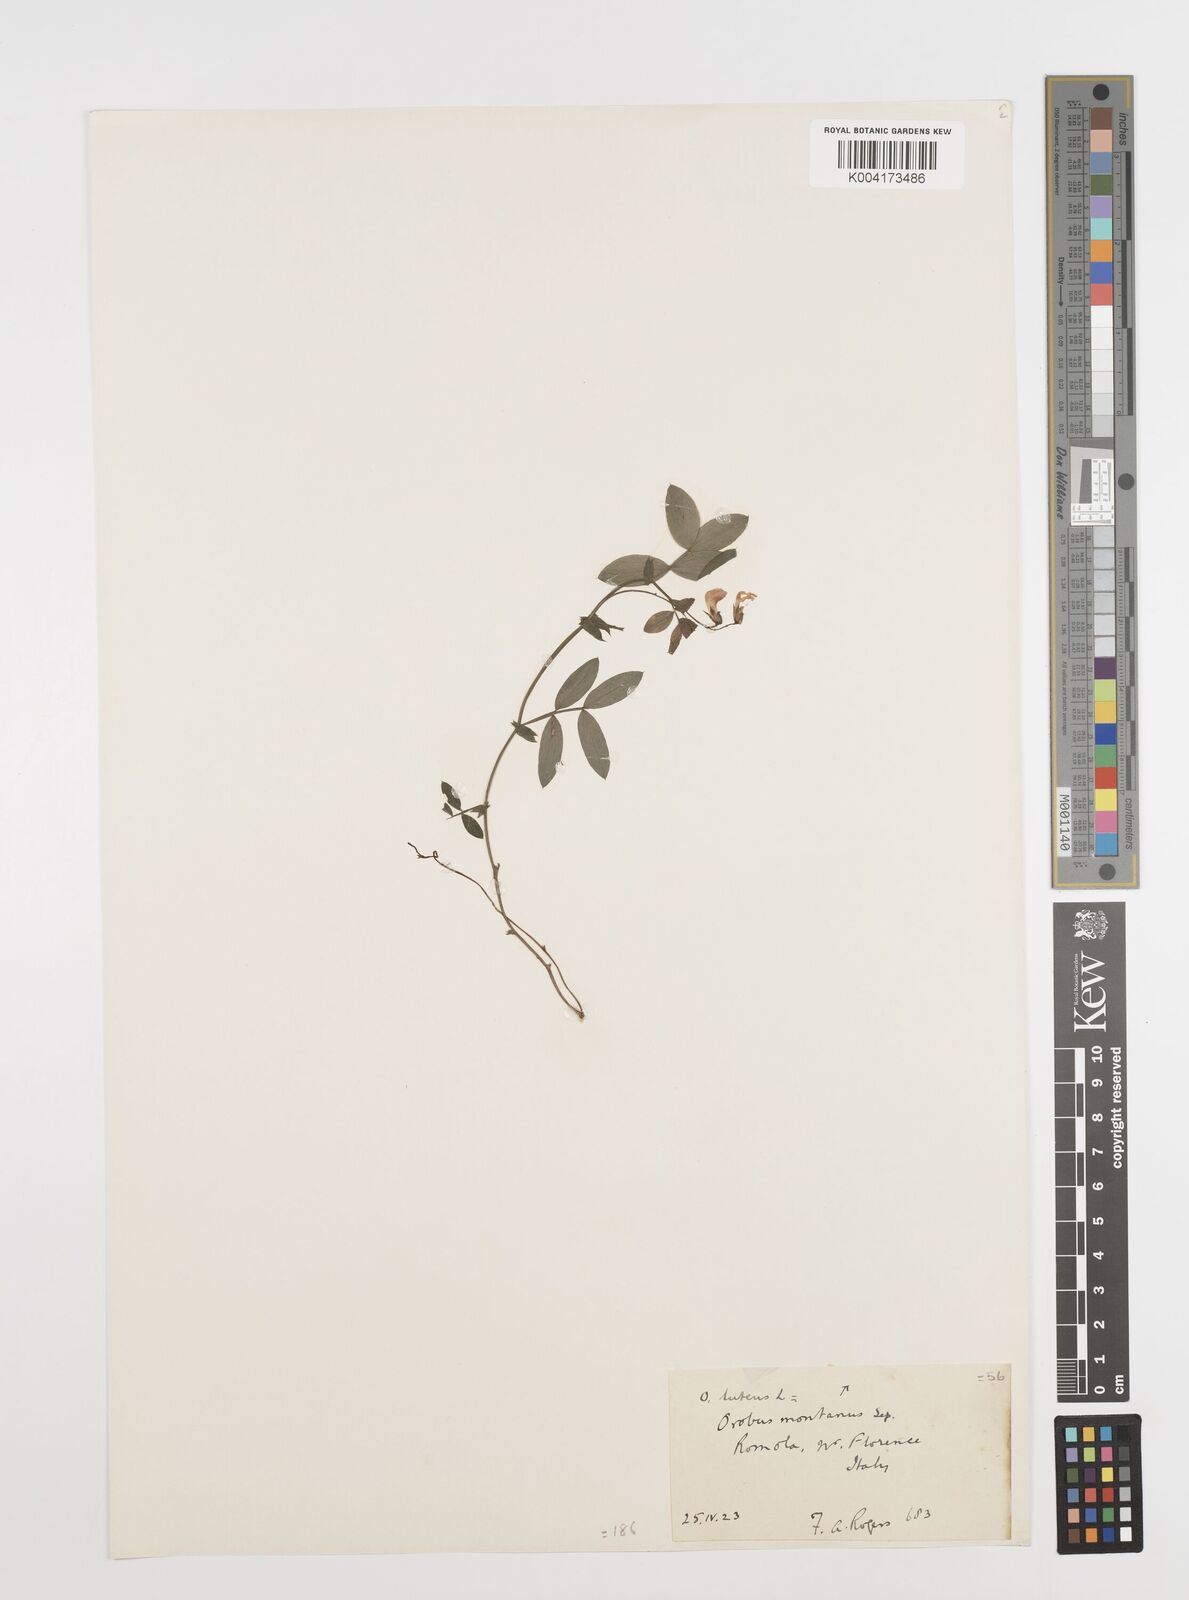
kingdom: Plantae
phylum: Tracheophyta
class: Magnoliopsida
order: Fabales
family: Fabaceae
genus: Lathyrus
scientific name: Lathyrus linifolius
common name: Bitter-vetch
